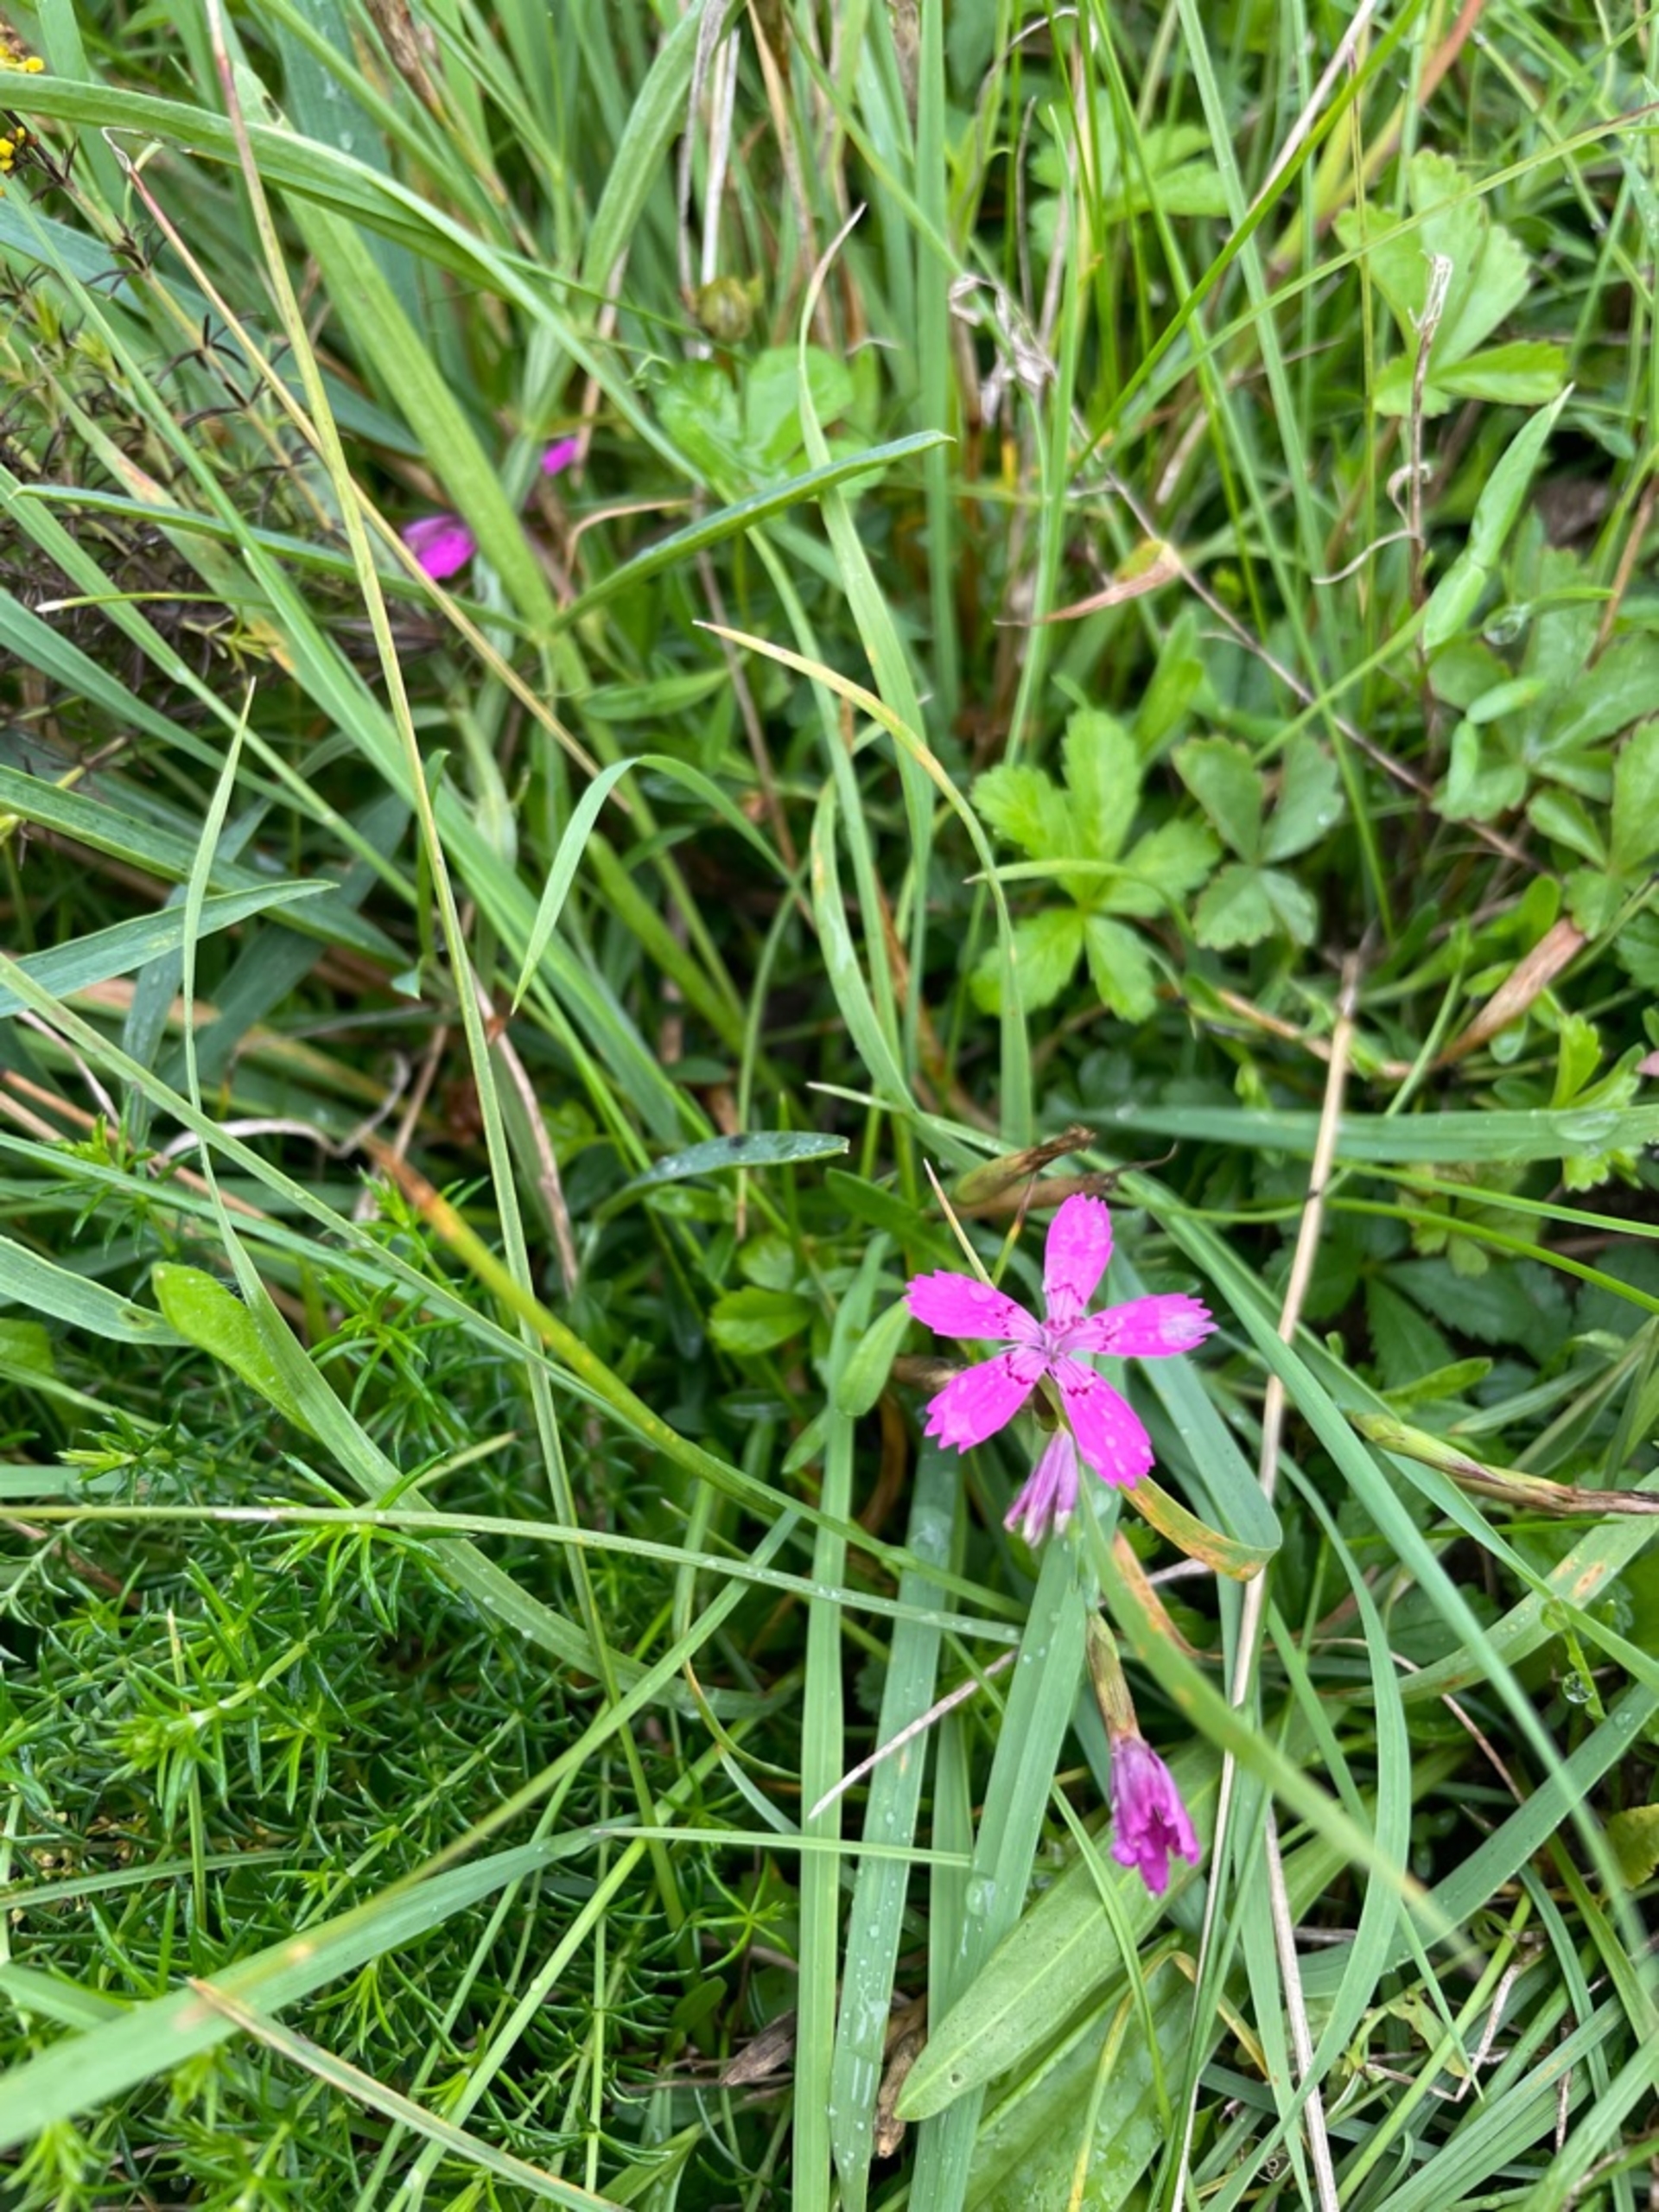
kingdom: Plantae
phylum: Tracheophyta
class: Magnoliopsida
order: Caryophyllales
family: Caryophyllaceae
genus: Dianthus
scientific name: Dianthus deltoides
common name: Bakke-nellike
